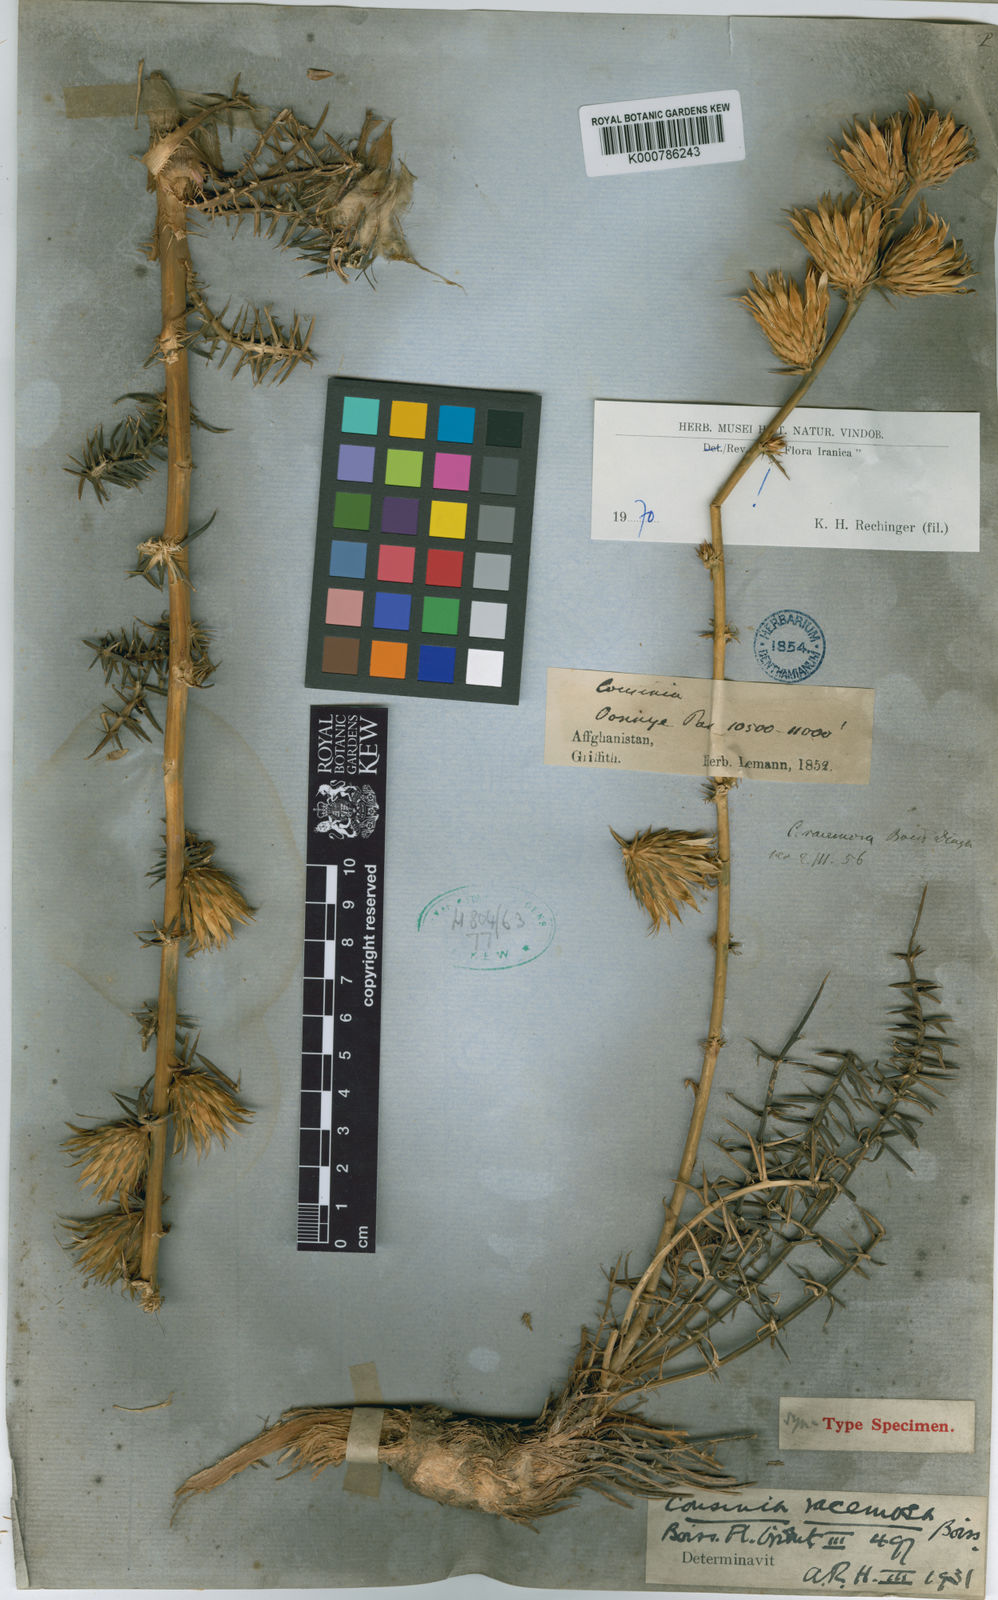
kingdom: Plantae
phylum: Tracheophyta
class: Magnoliopsida
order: Asterales
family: Asteraceae
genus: Cousinia
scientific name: Cousinia racemosa
